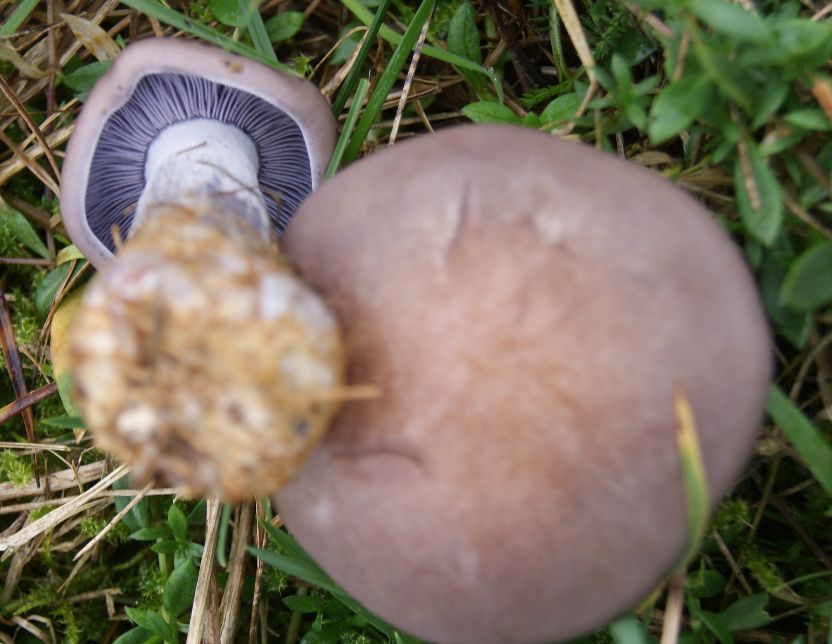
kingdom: Fungi
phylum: Basidiomycota
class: Agaricomycetes
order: Agaricales
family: Tricholomataceae
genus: Lepista
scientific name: Lepista nuda
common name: violet hekseringshat
